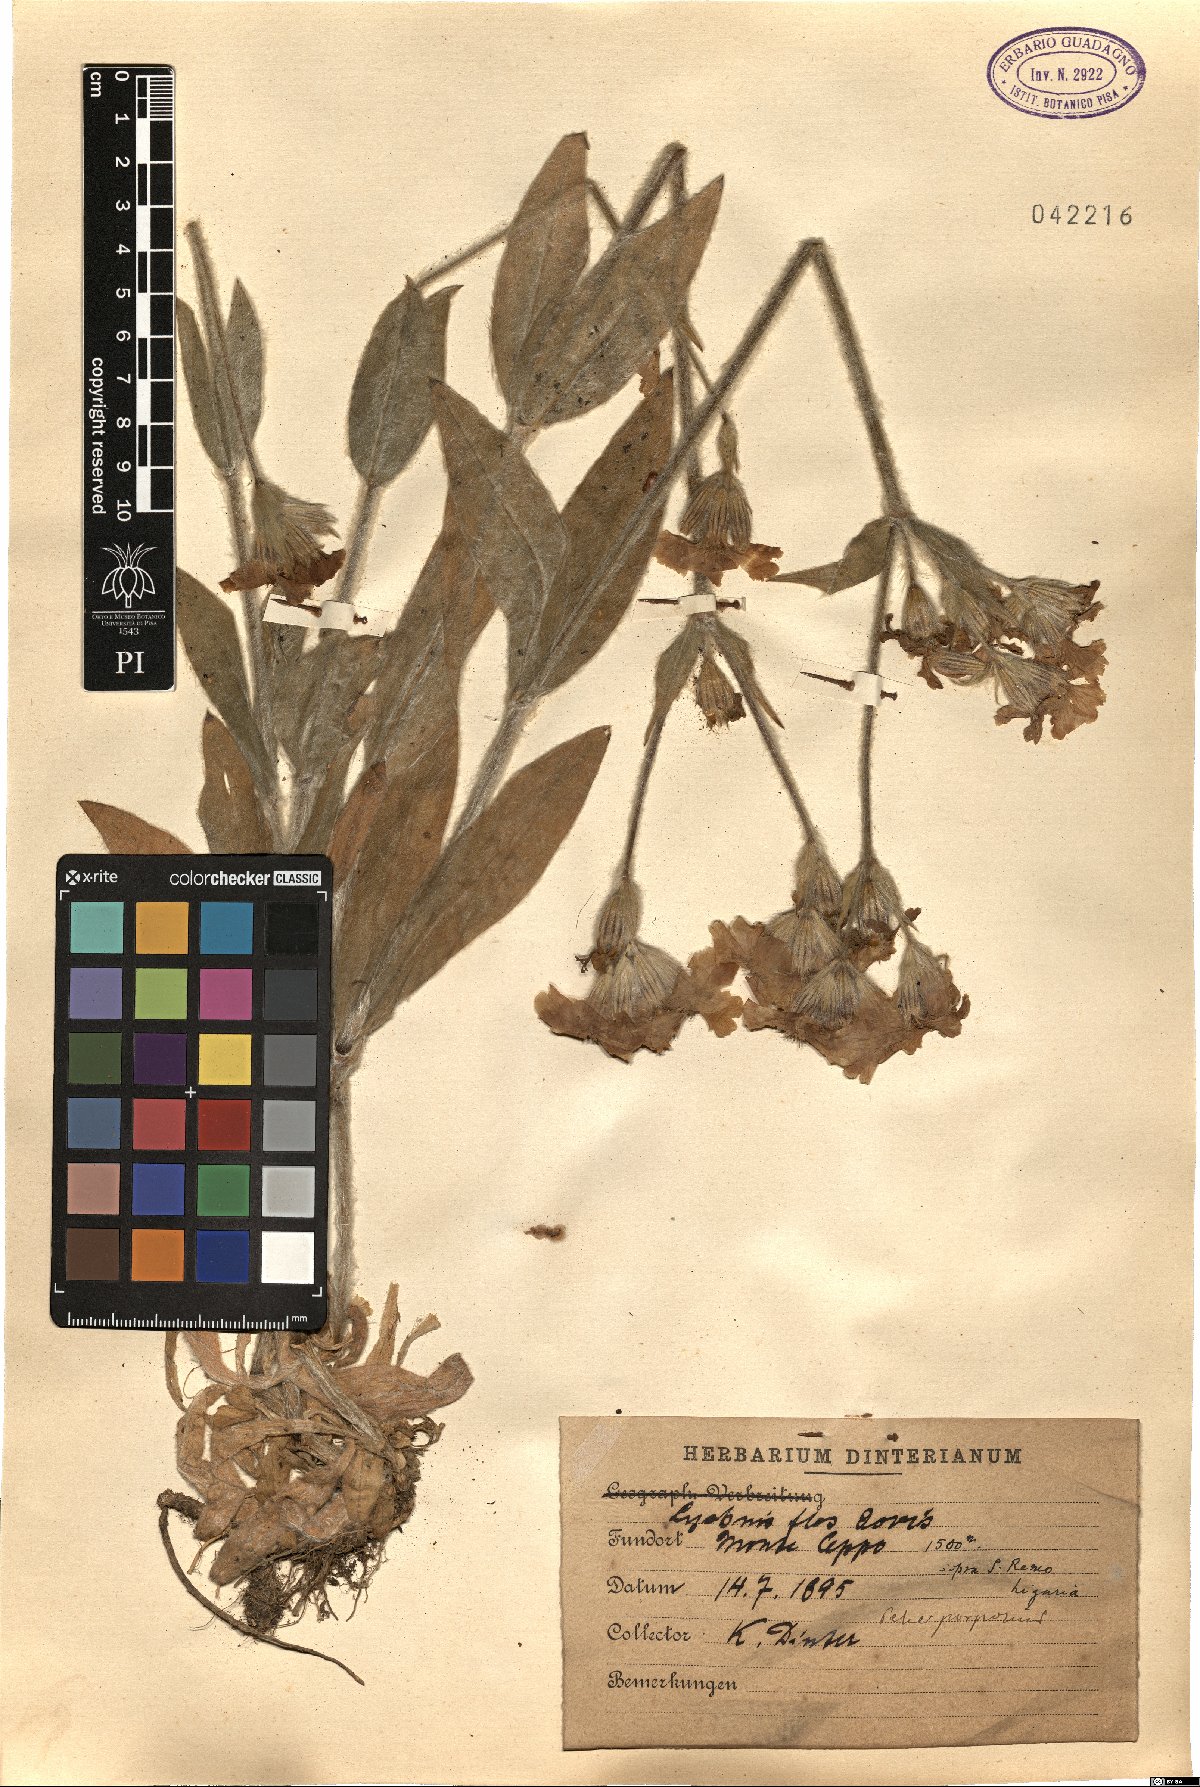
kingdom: Plantae
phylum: Tracheophyta
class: Magnoliopsida
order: Caryophyllales
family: Caryophyllaceae
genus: Silene
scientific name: Silene flos-jovis
